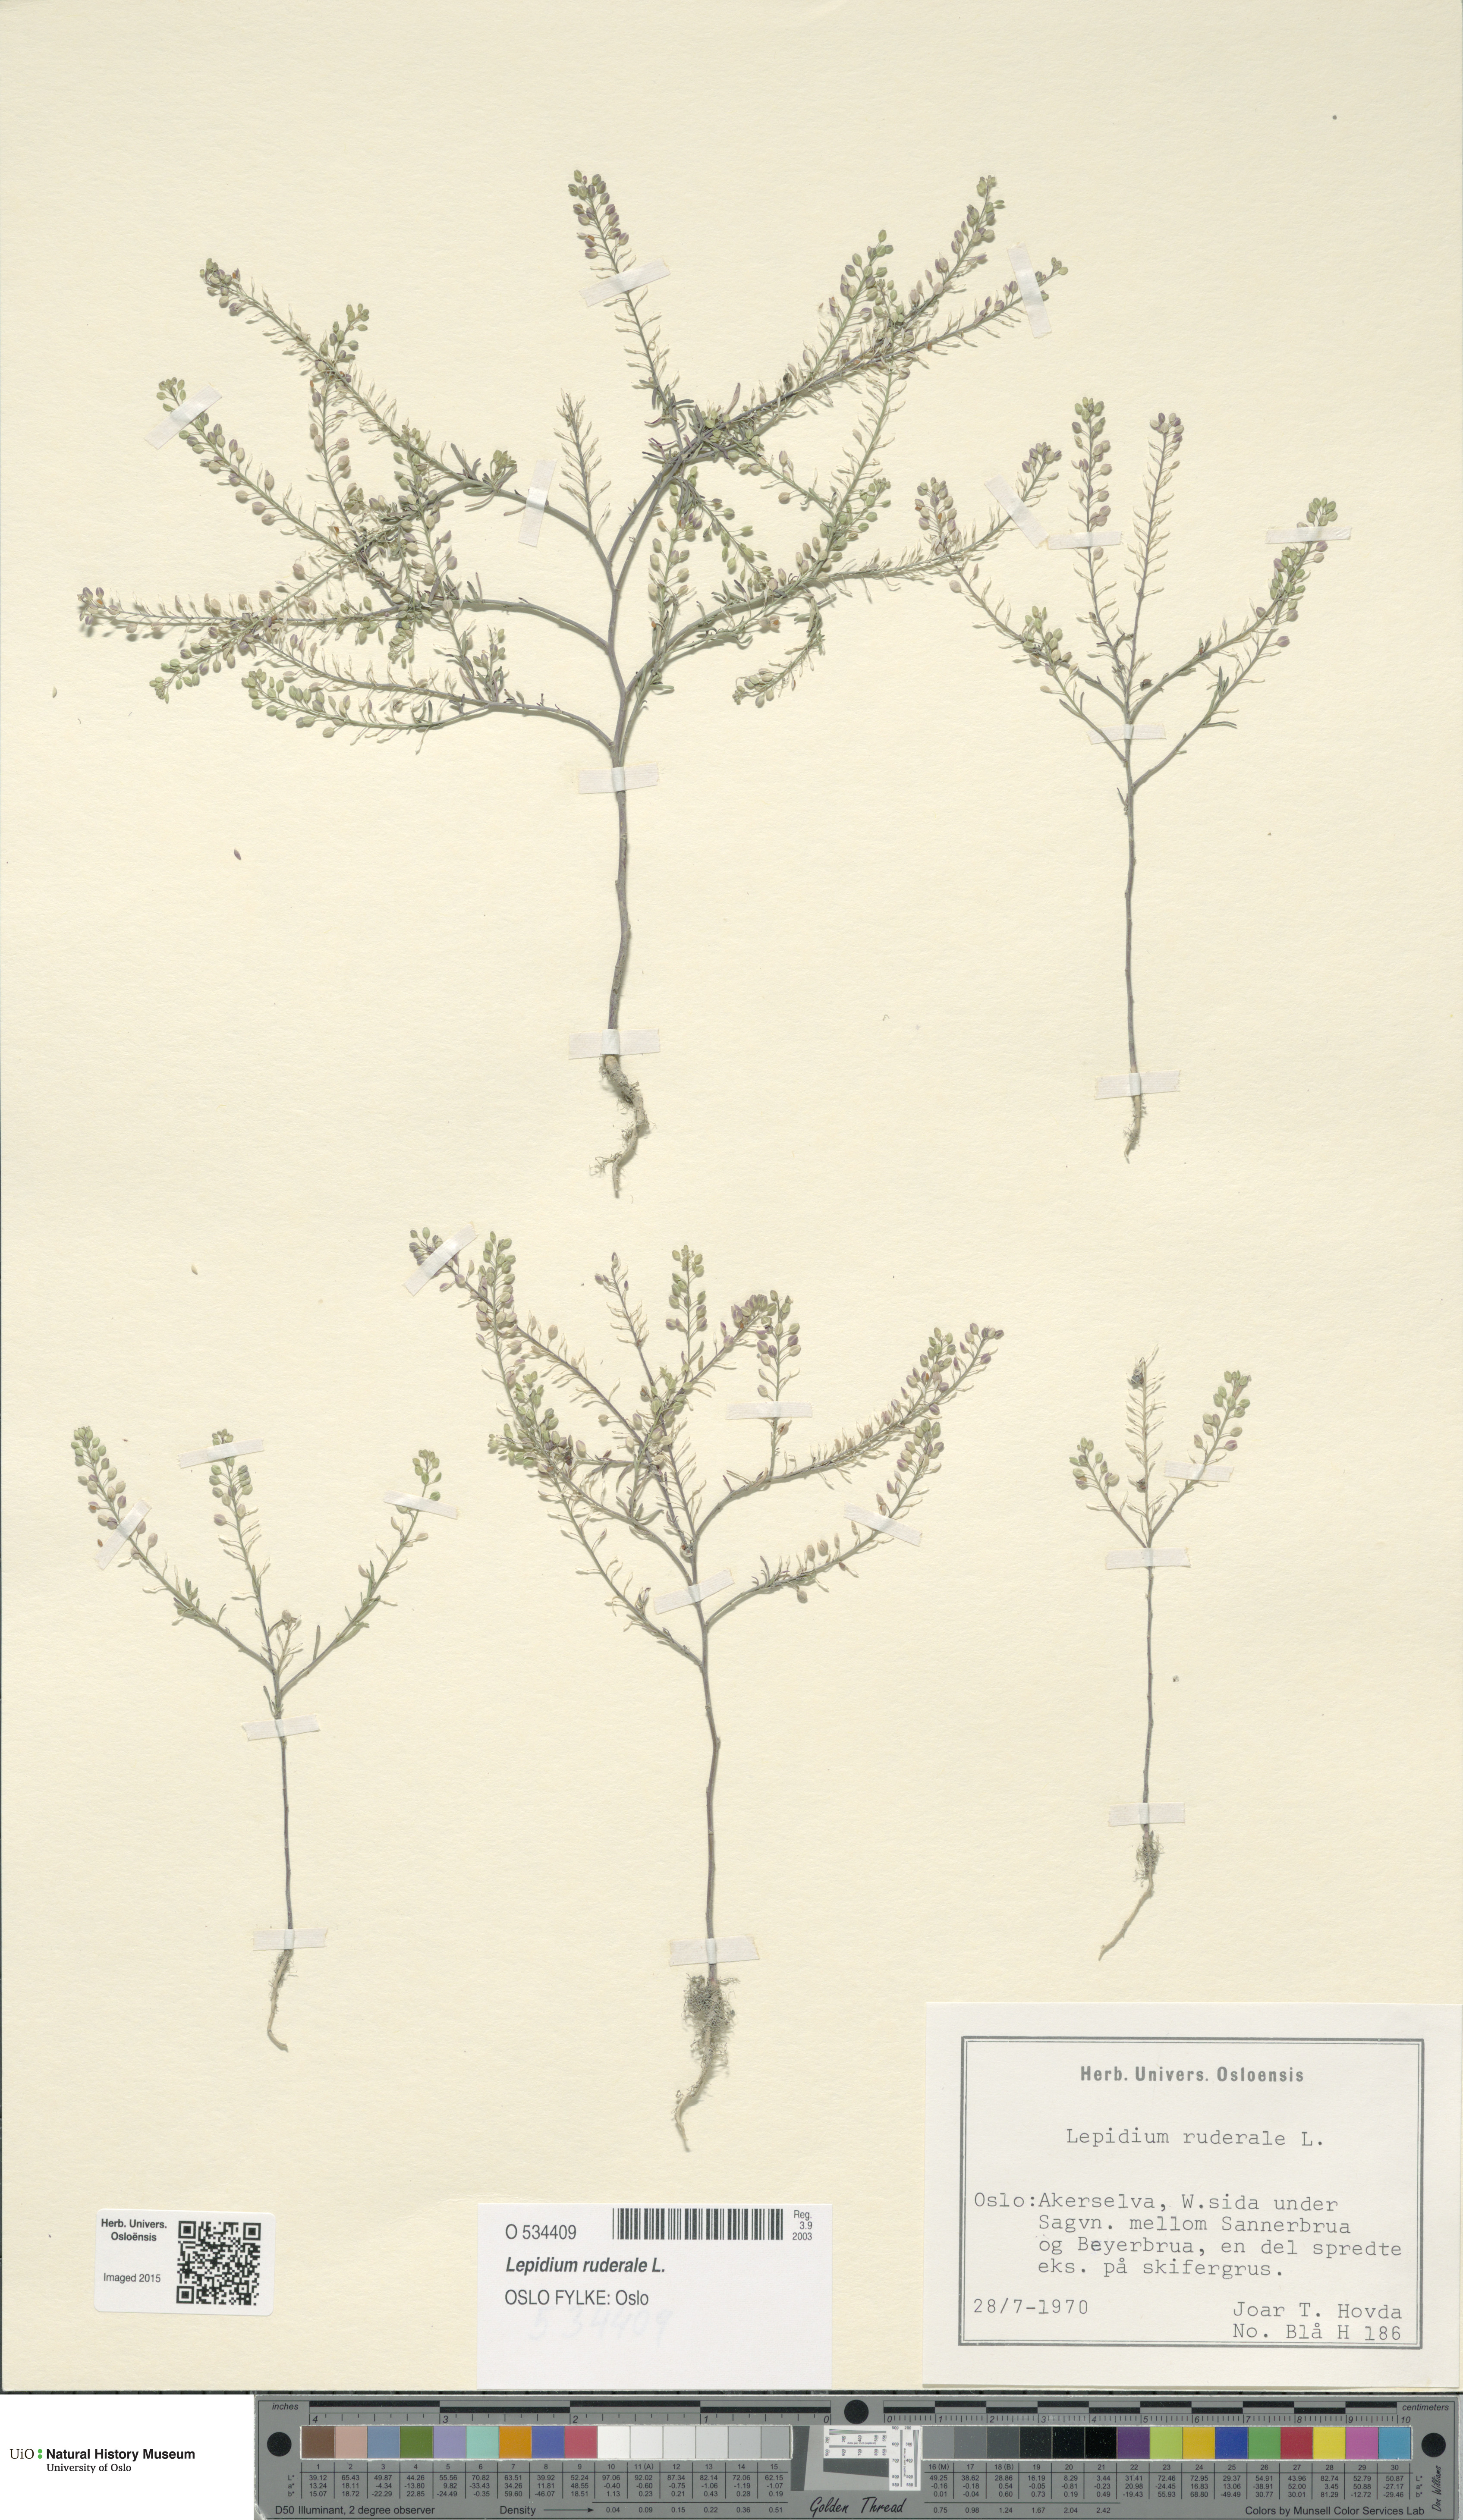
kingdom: Plantae
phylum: Tracheophyta
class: Magnoliopsida
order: Brassicales
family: Brassicaceae
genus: Lepidium
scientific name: Lepidium ruderale
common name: Narrow-leaved pepperwort
